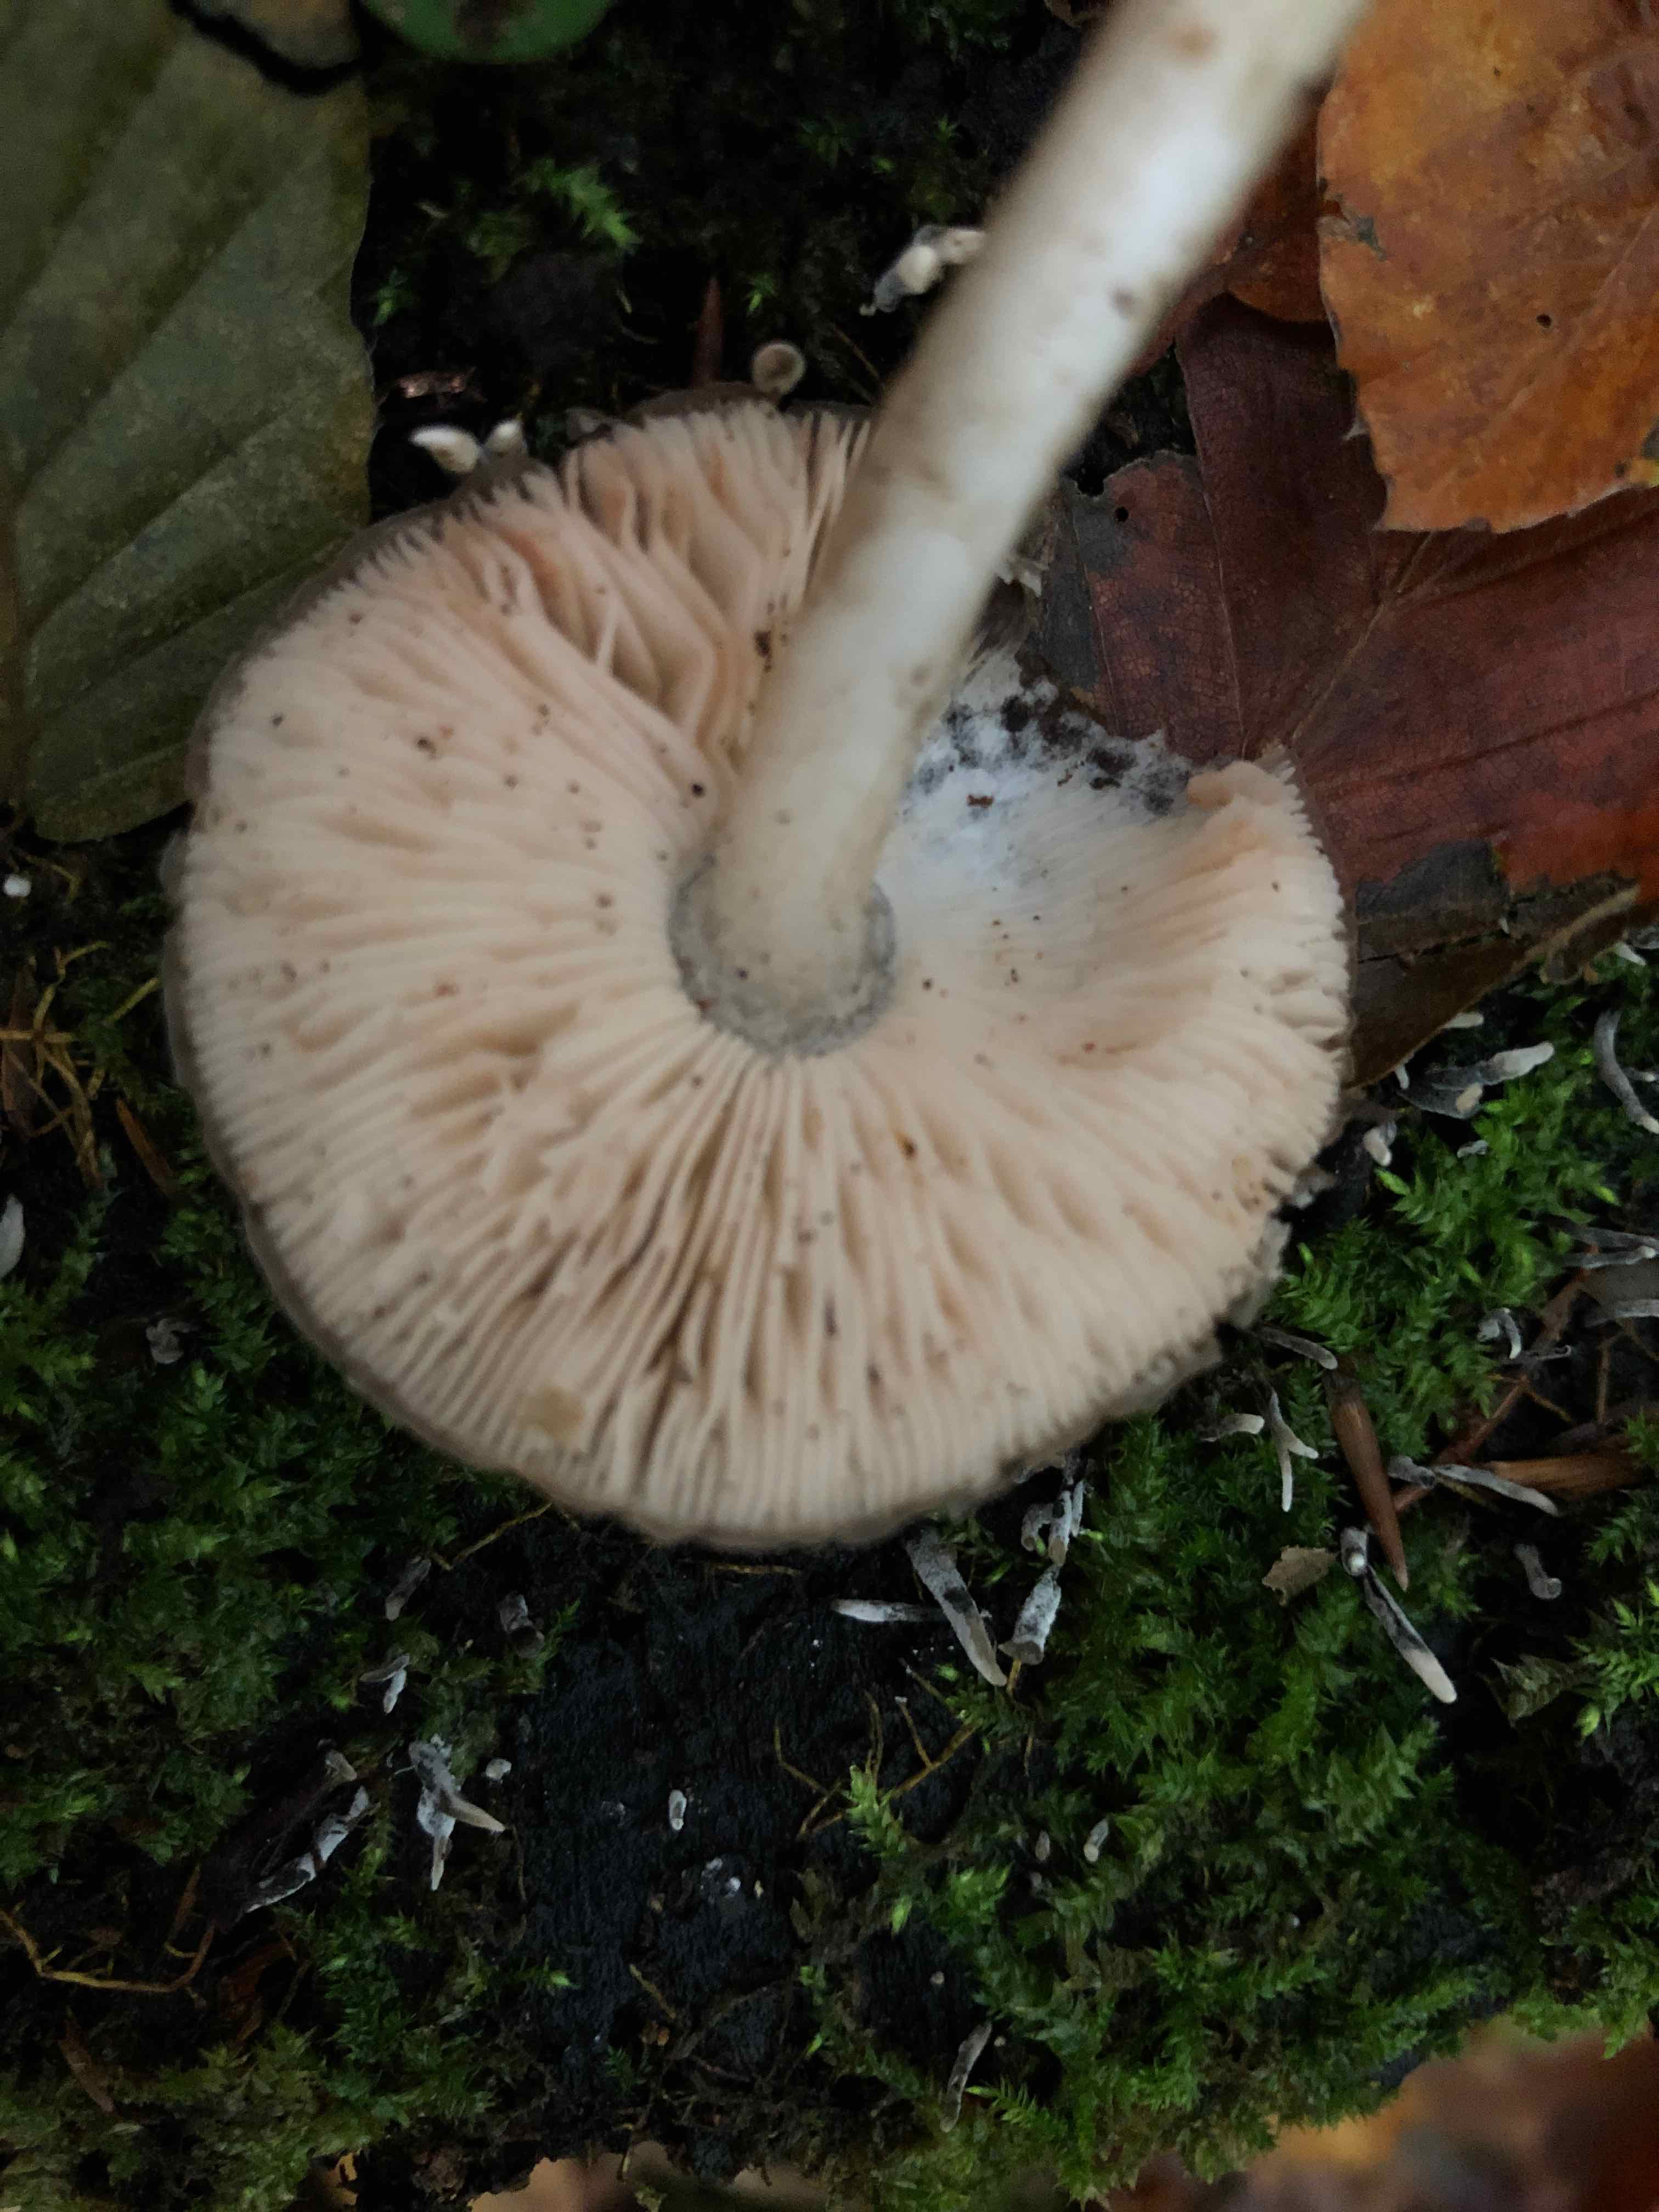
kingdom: Fungi
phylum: Basidiomycota
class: Agaricomycetes
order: Agaricales
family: Pluteaceae
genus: Pluteus
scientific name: Pluteus cervinus
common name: sodfarvet skærmhat
